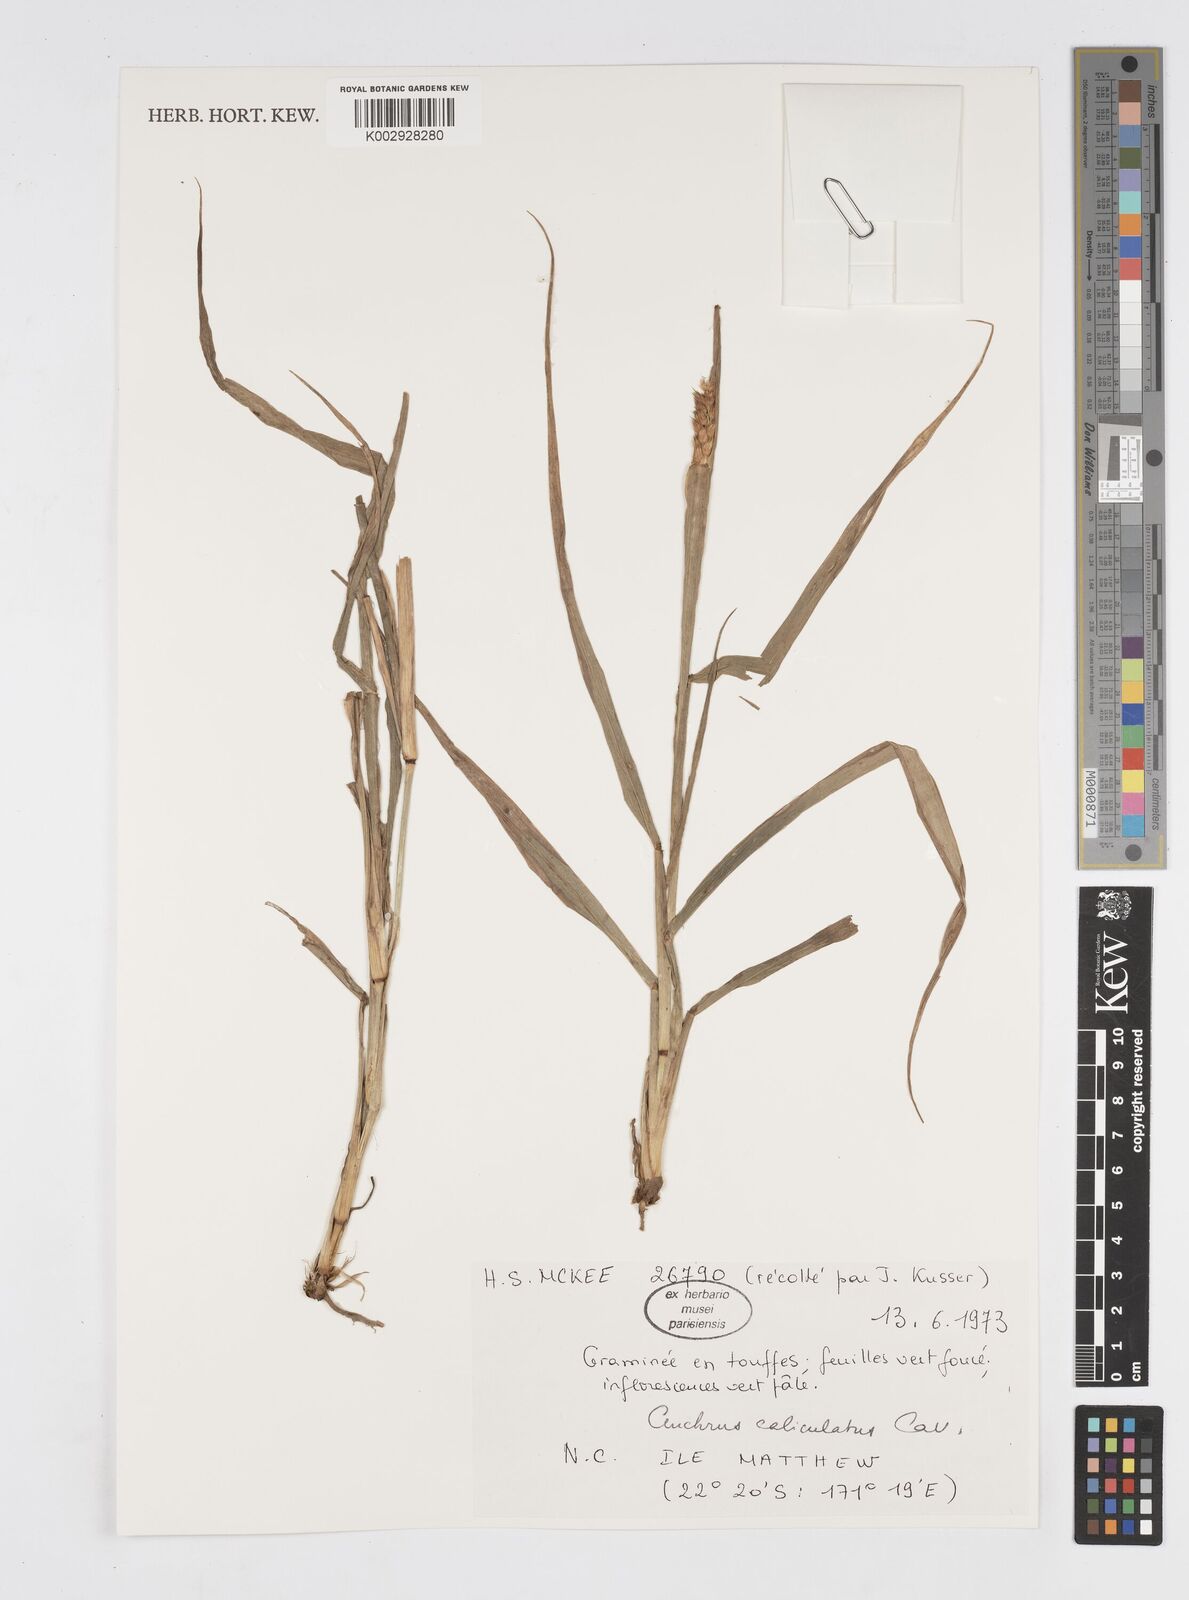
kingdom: Plantae
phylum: Tracheophyta
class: Liliopsida
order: Poales
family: Poaceae
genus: Cenchrus
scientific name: Cenchrus caliculatus
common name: Large bur grass
